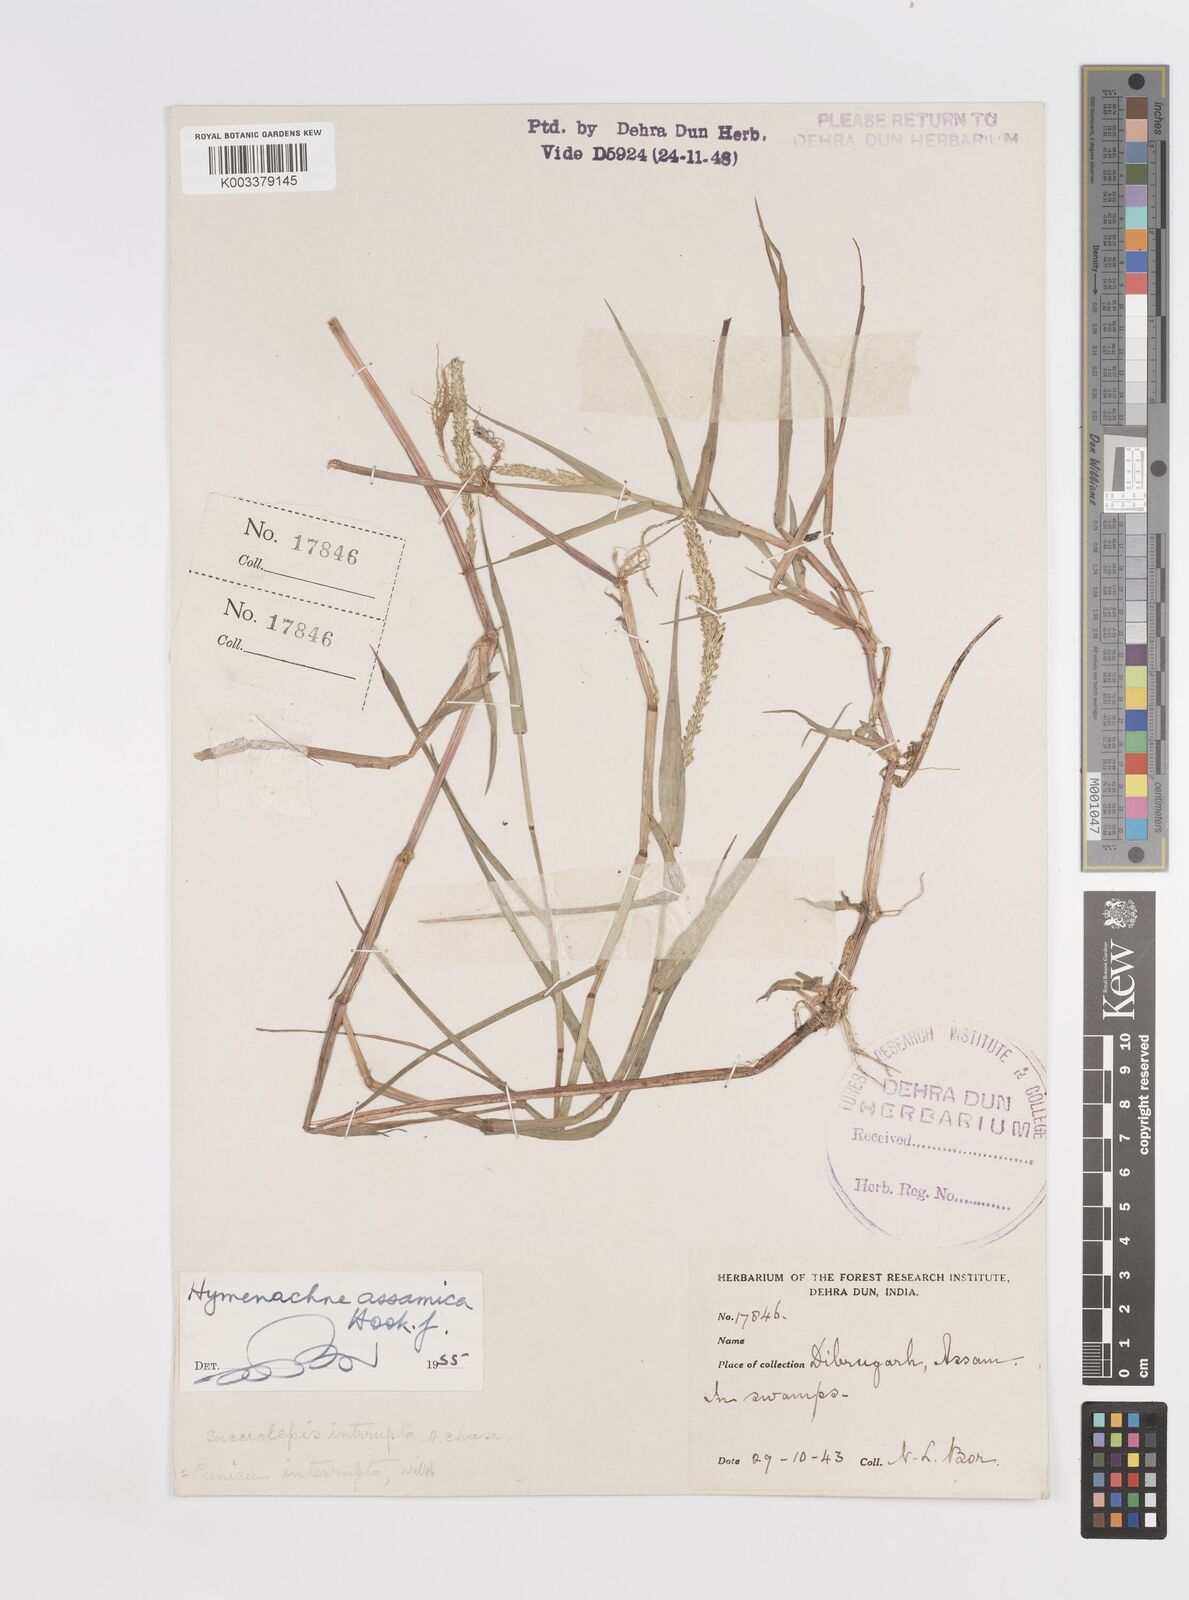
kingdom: Plantae
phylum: Tracheophyta
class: Liliopsida
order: Poales
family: Poaceae
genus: Hymenachne
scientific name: Hymenachne assamica
